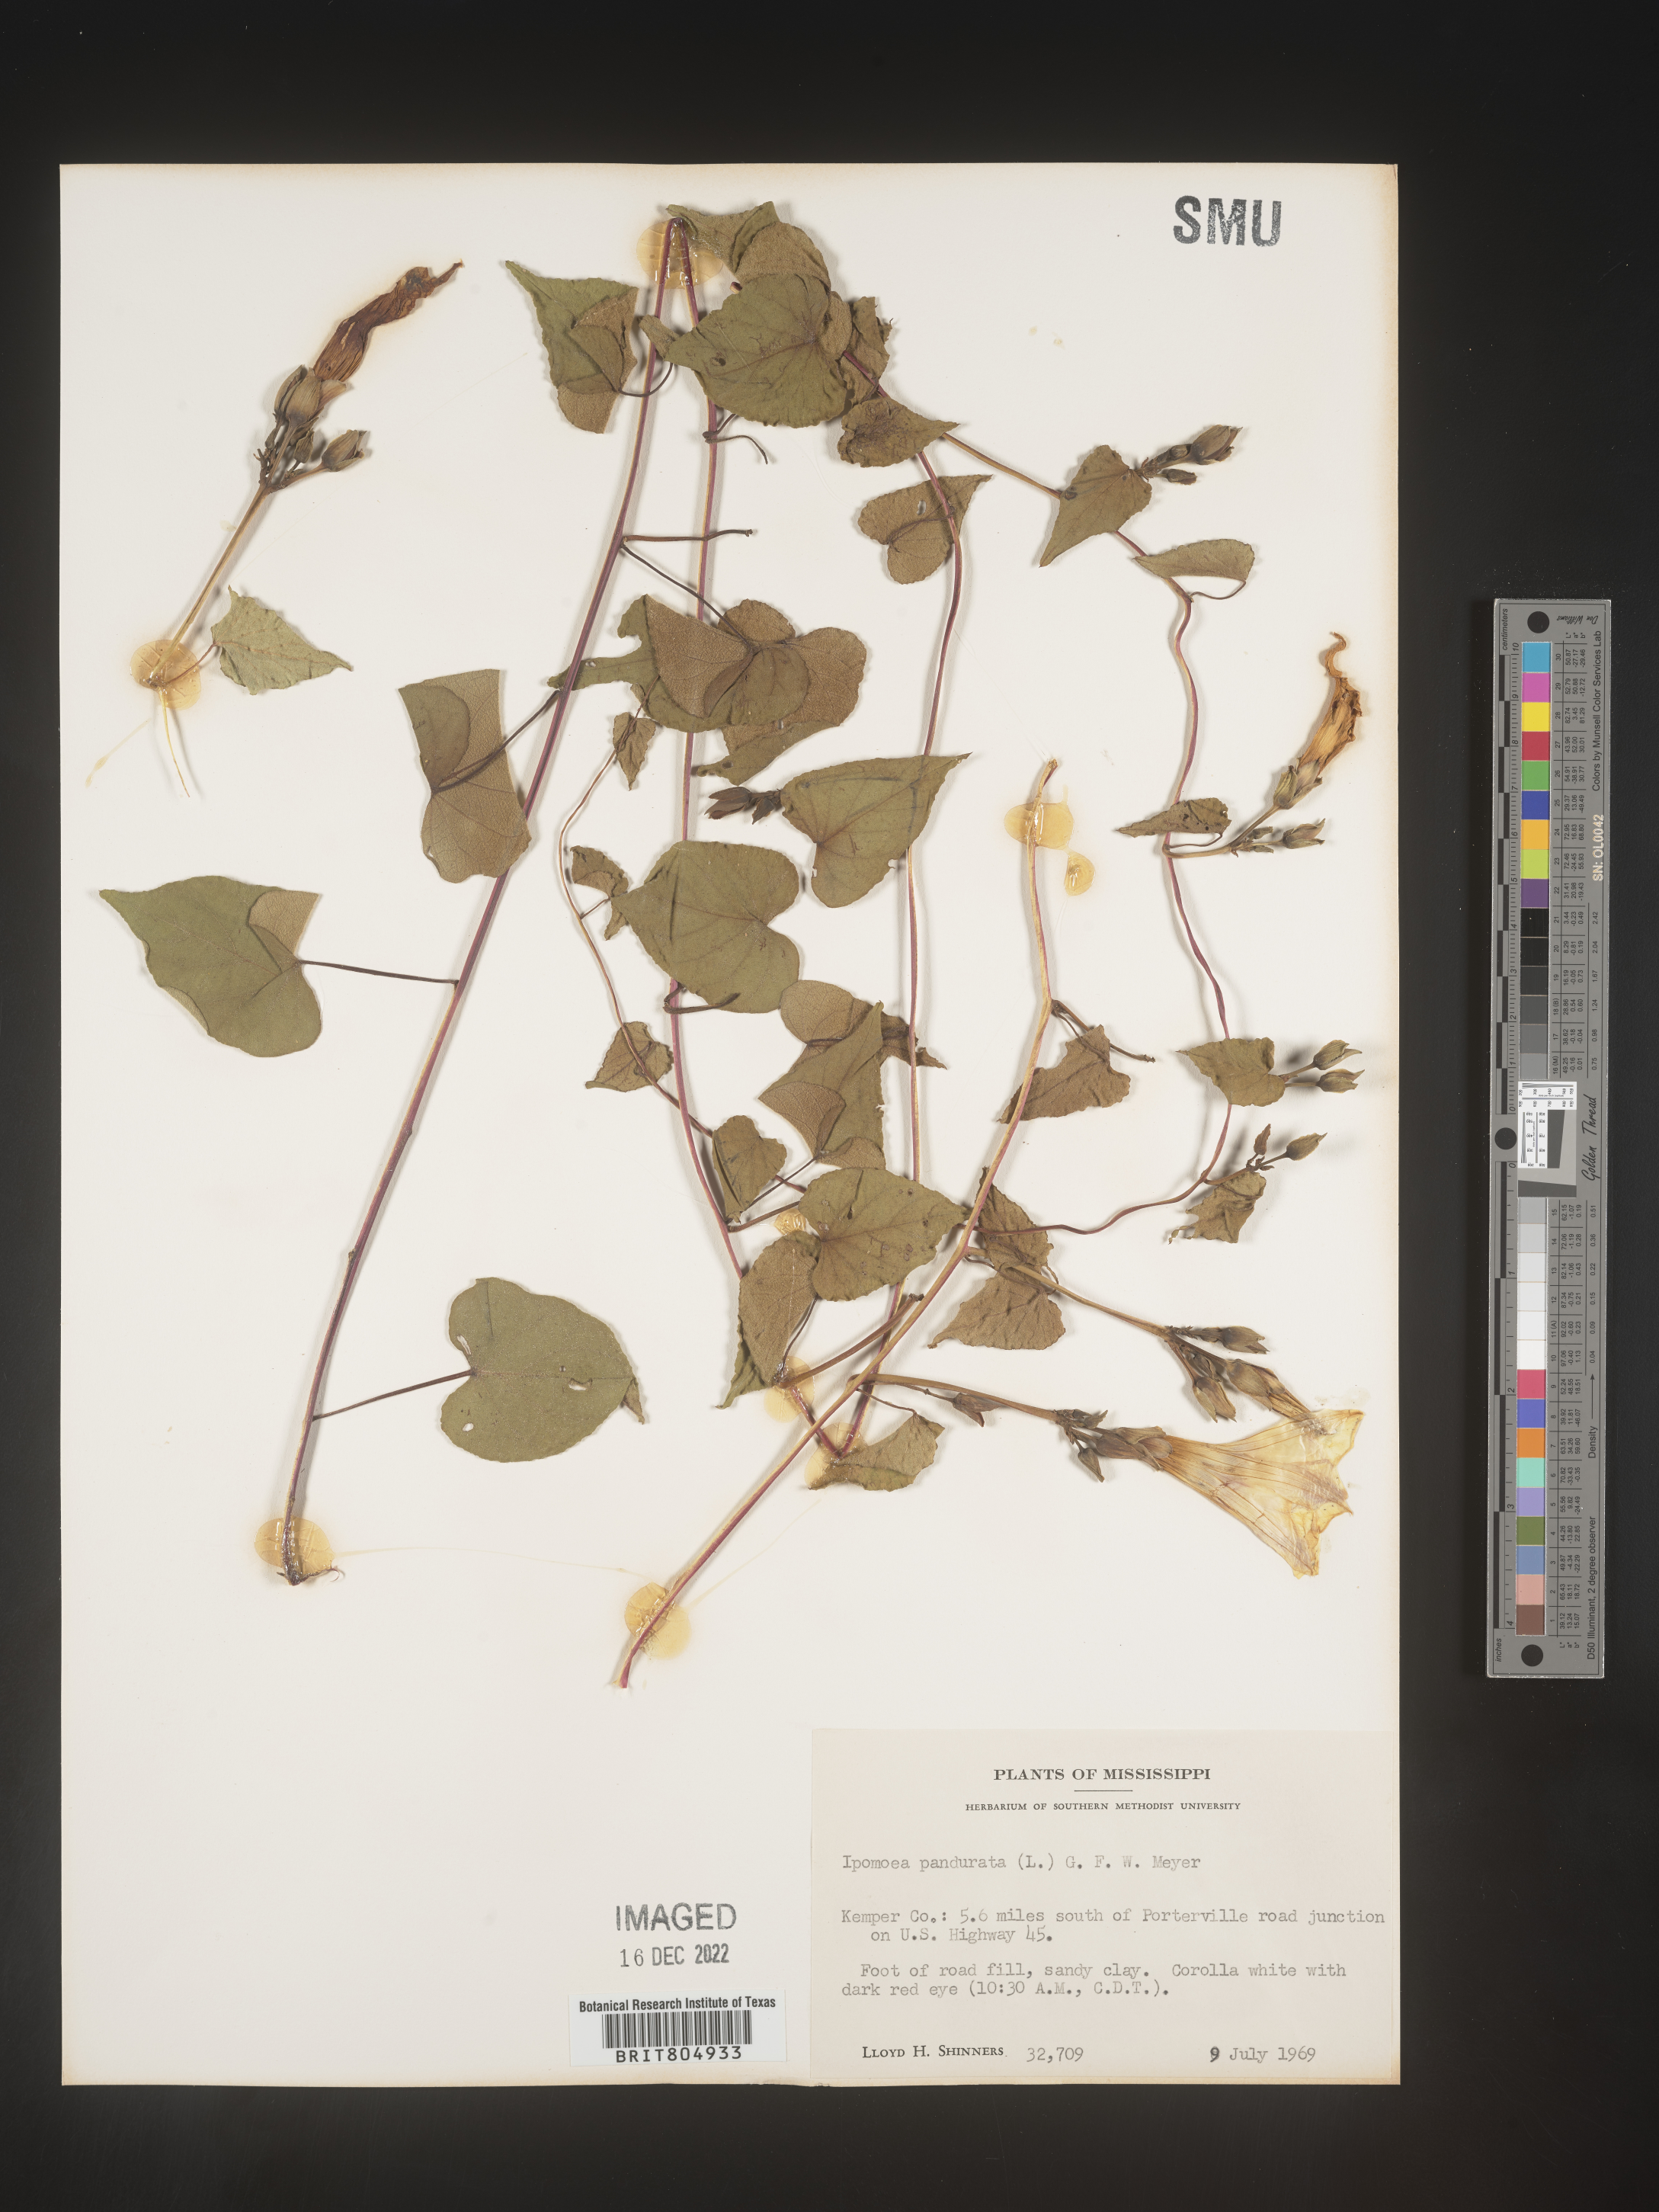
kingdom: Plantae
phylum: Tracheophyta
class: Magnoliopsida
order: Solanales
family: Convolvulaceae
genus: Ipomoea
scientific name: Ipomoea pandurata
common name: Man-of-the-earth
